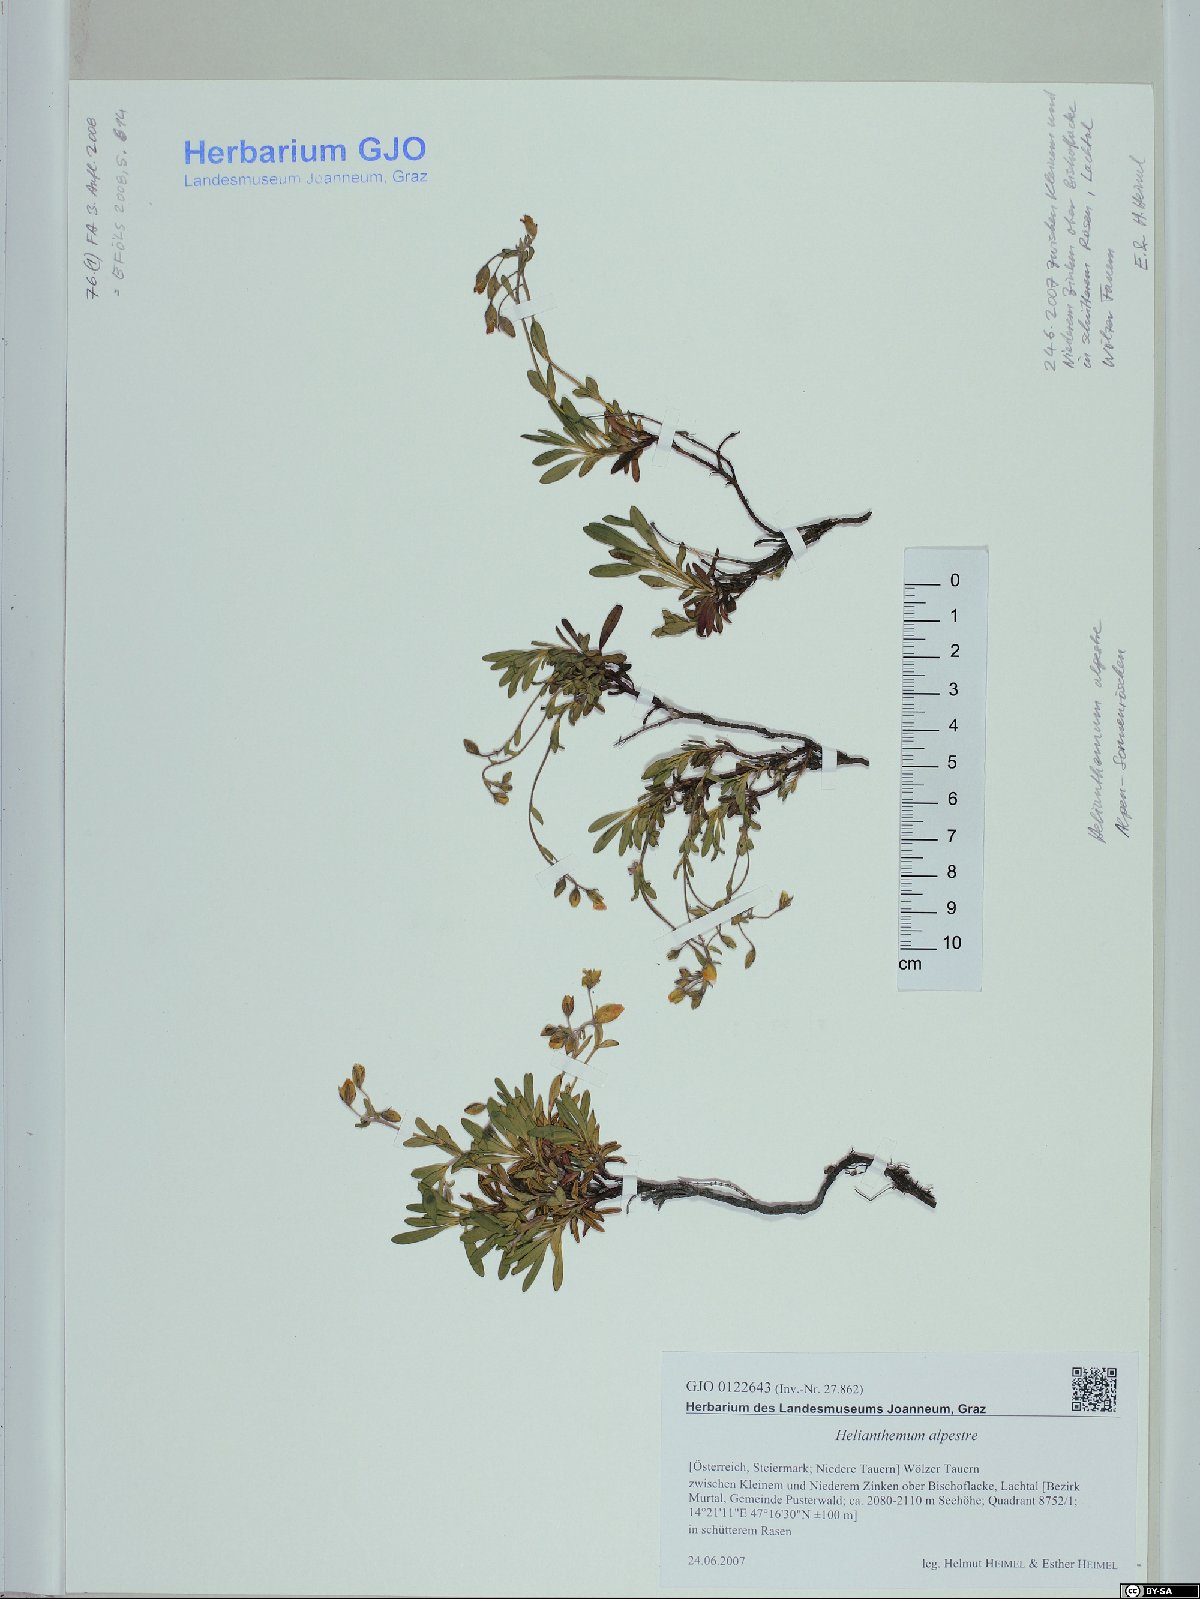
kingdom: Plantae
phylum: Tracheophyta
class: Magnoliopsida
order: Malvales
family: Cistaceae
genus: Helianthemum
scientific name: Helianthemum alpestre
